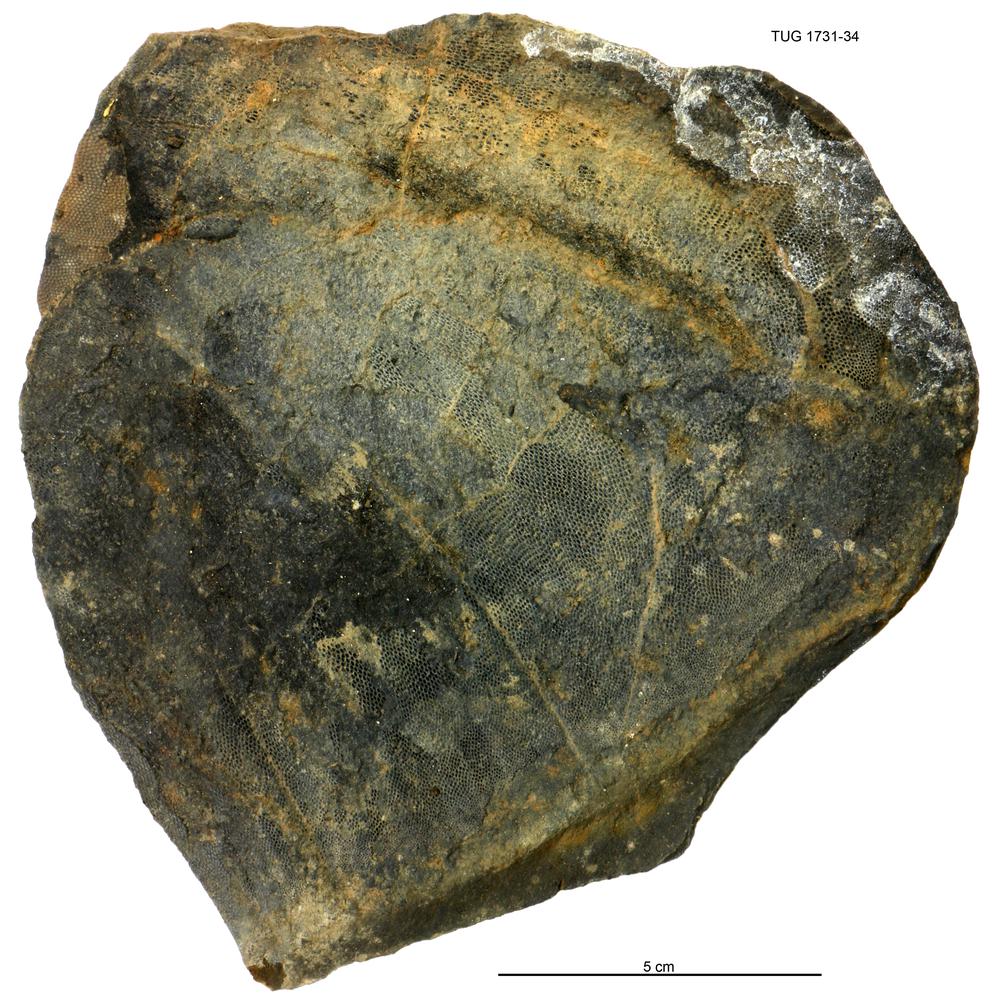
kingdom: Animalia
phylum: Chordata
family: Psammosteidae
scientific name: Psammosteidae
